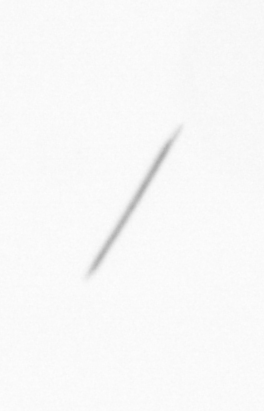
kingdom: Chromista
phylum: Ochrophyta
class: Bacillariophyceae
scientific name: Bacillariophyceae
